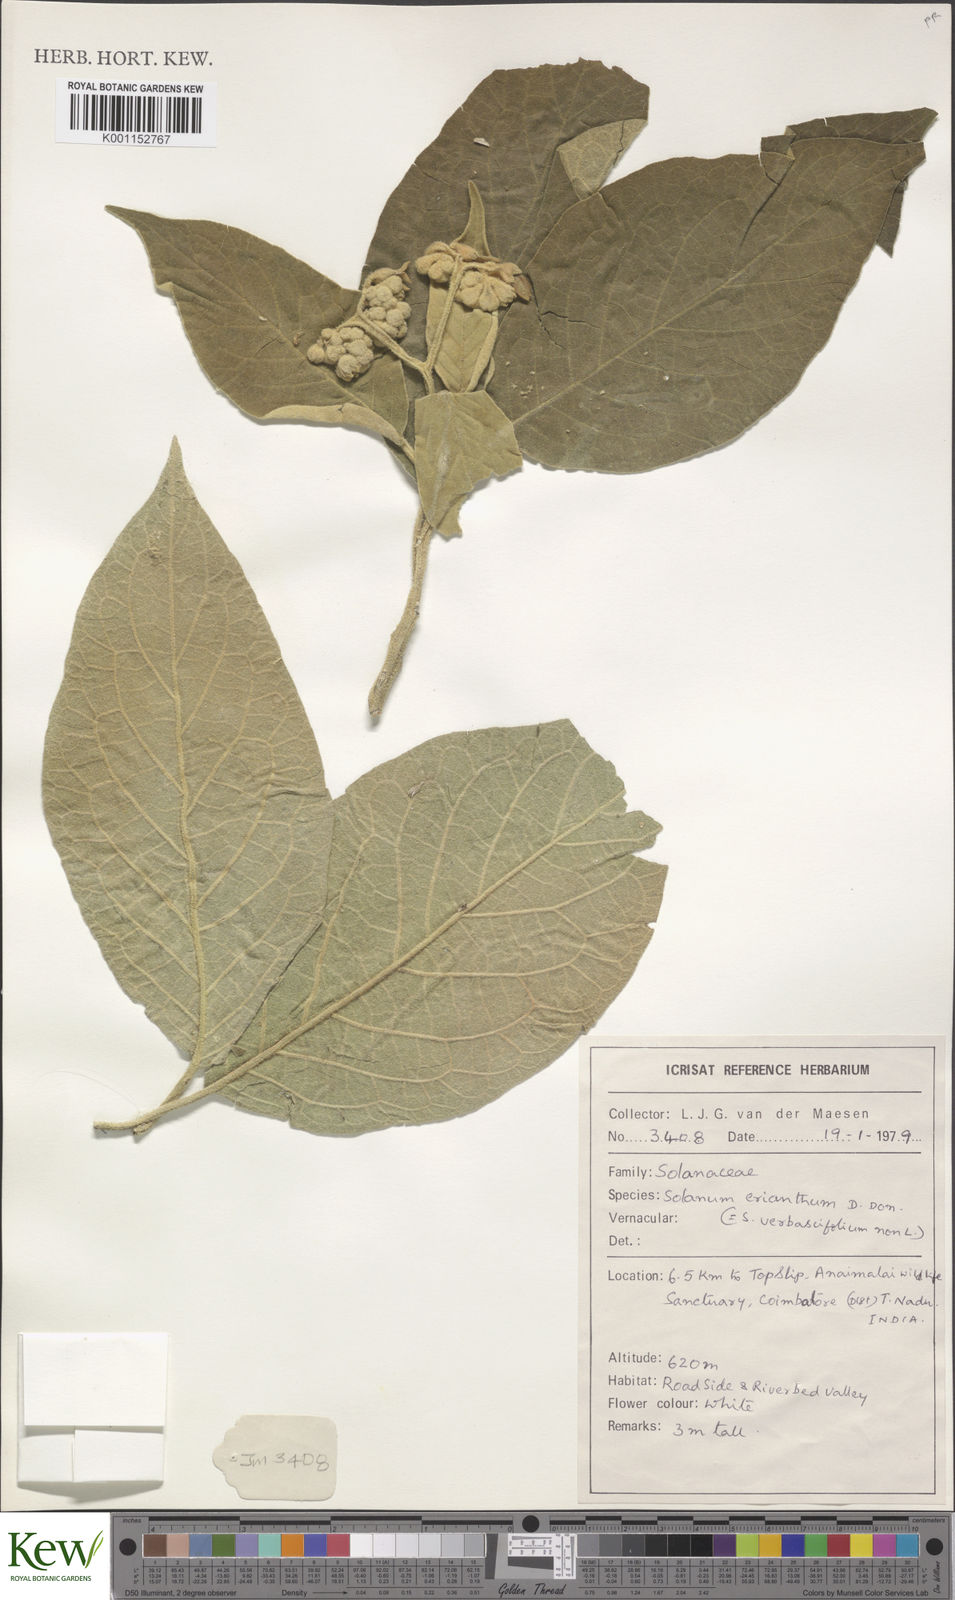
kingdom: Plantae
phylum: Tracheophyta
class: Magnoliopsida
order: Solanales
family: Solanaceae
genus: Solanum
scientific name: Solanum erianthum
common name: Tobacco-tree
